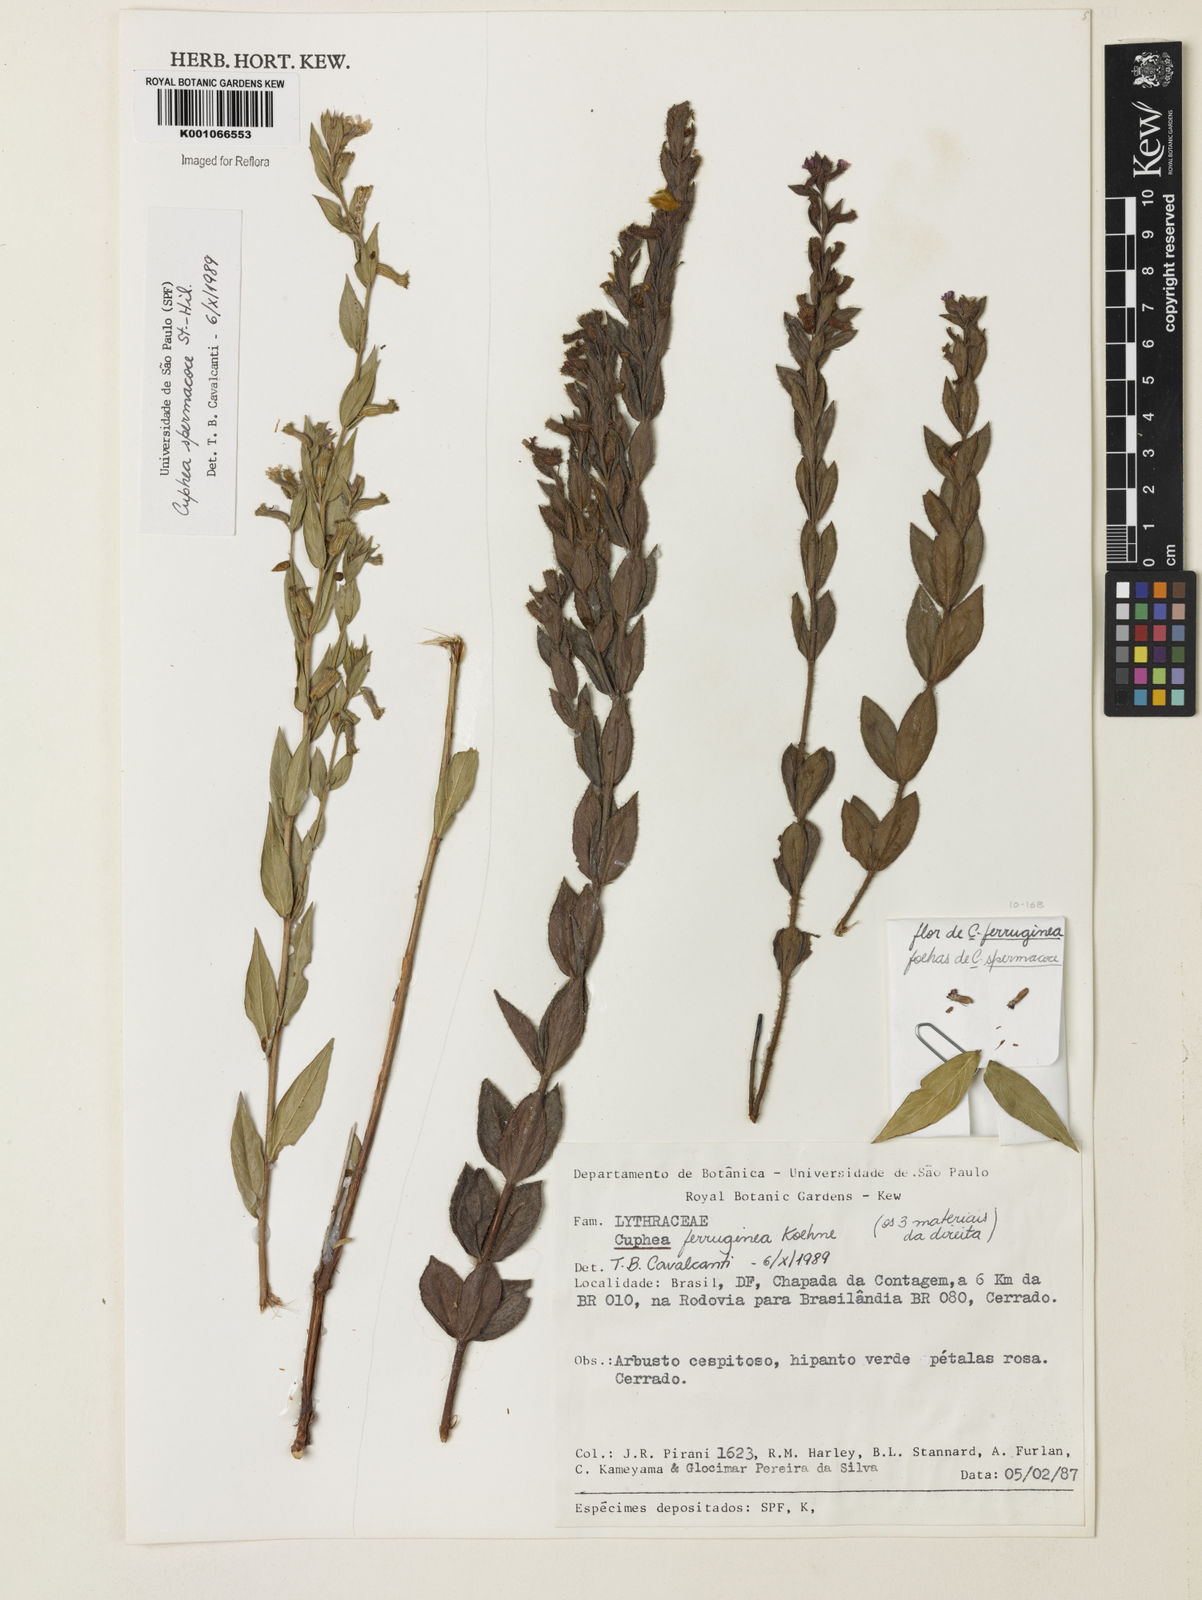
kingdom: Plantae
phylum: Tracheophyta
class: Magnoliopsida
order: Myrtales
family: Lythraceae
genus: Cuphea
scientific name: Cuphea ferruginea
